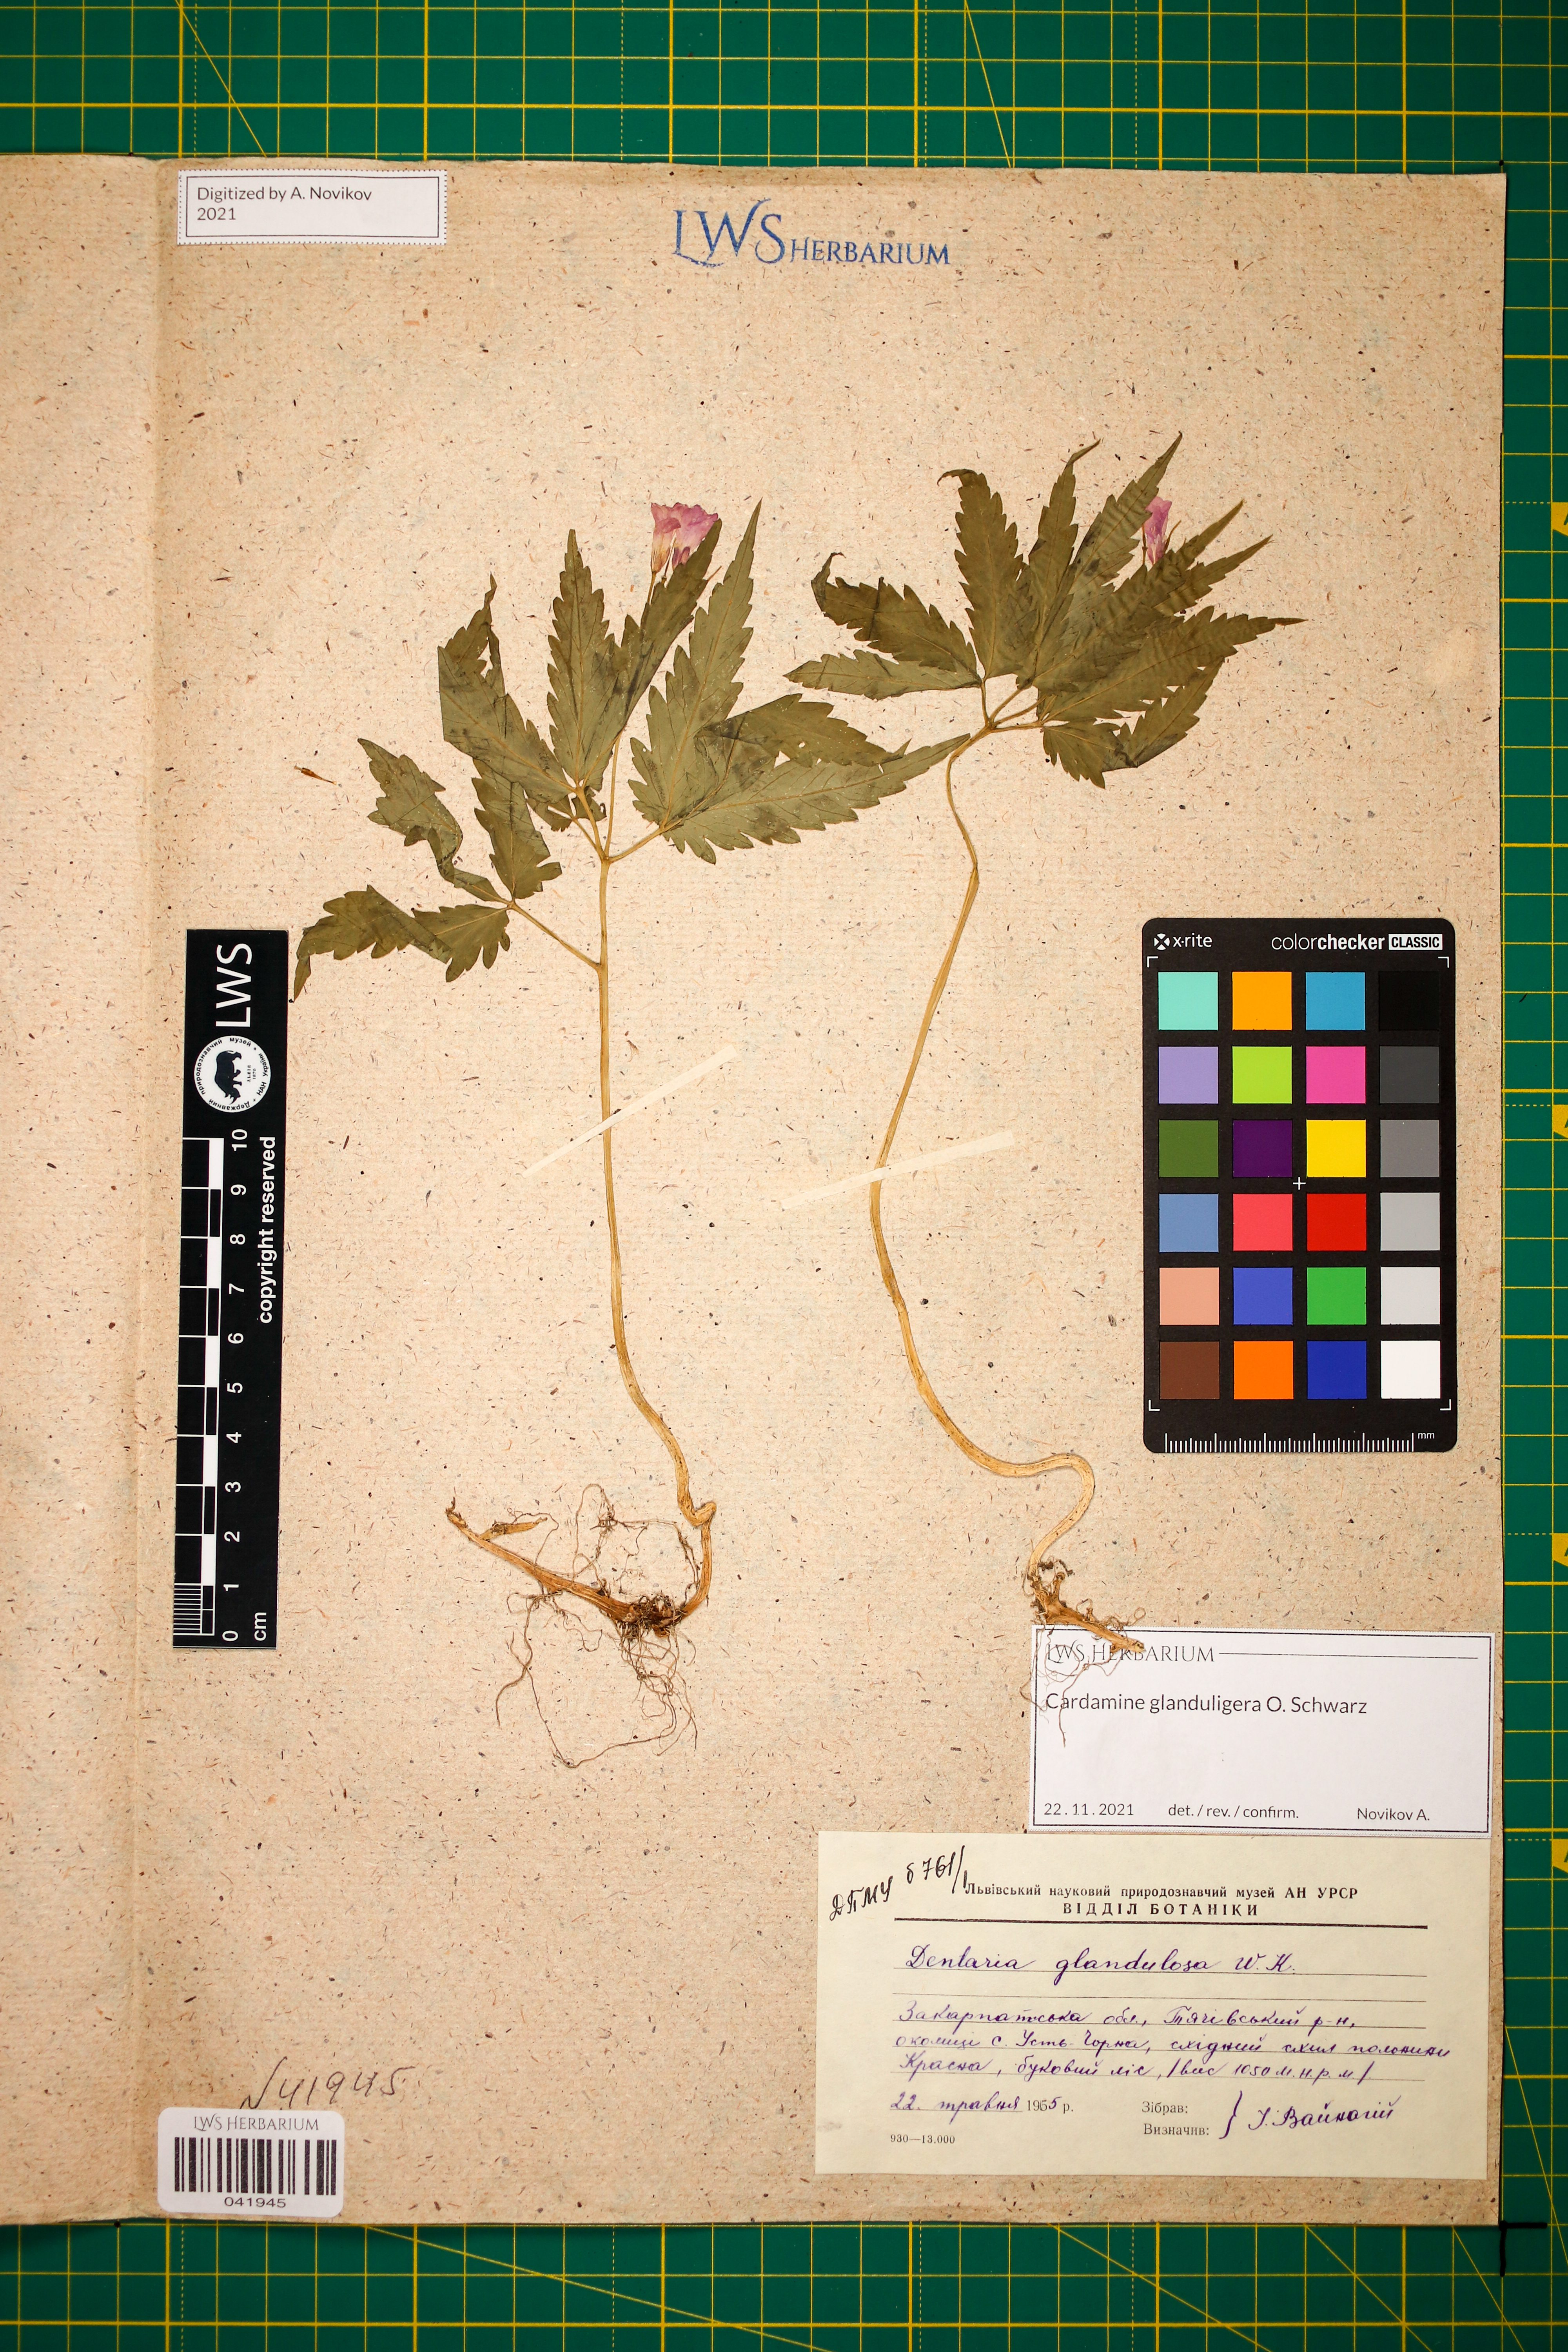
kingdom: Plantae
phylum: Tracheophyta
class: Magnoliopsida
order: Brassicales
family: Brassicaceae
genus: Cardamine
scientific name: Cardamine glanduligera
